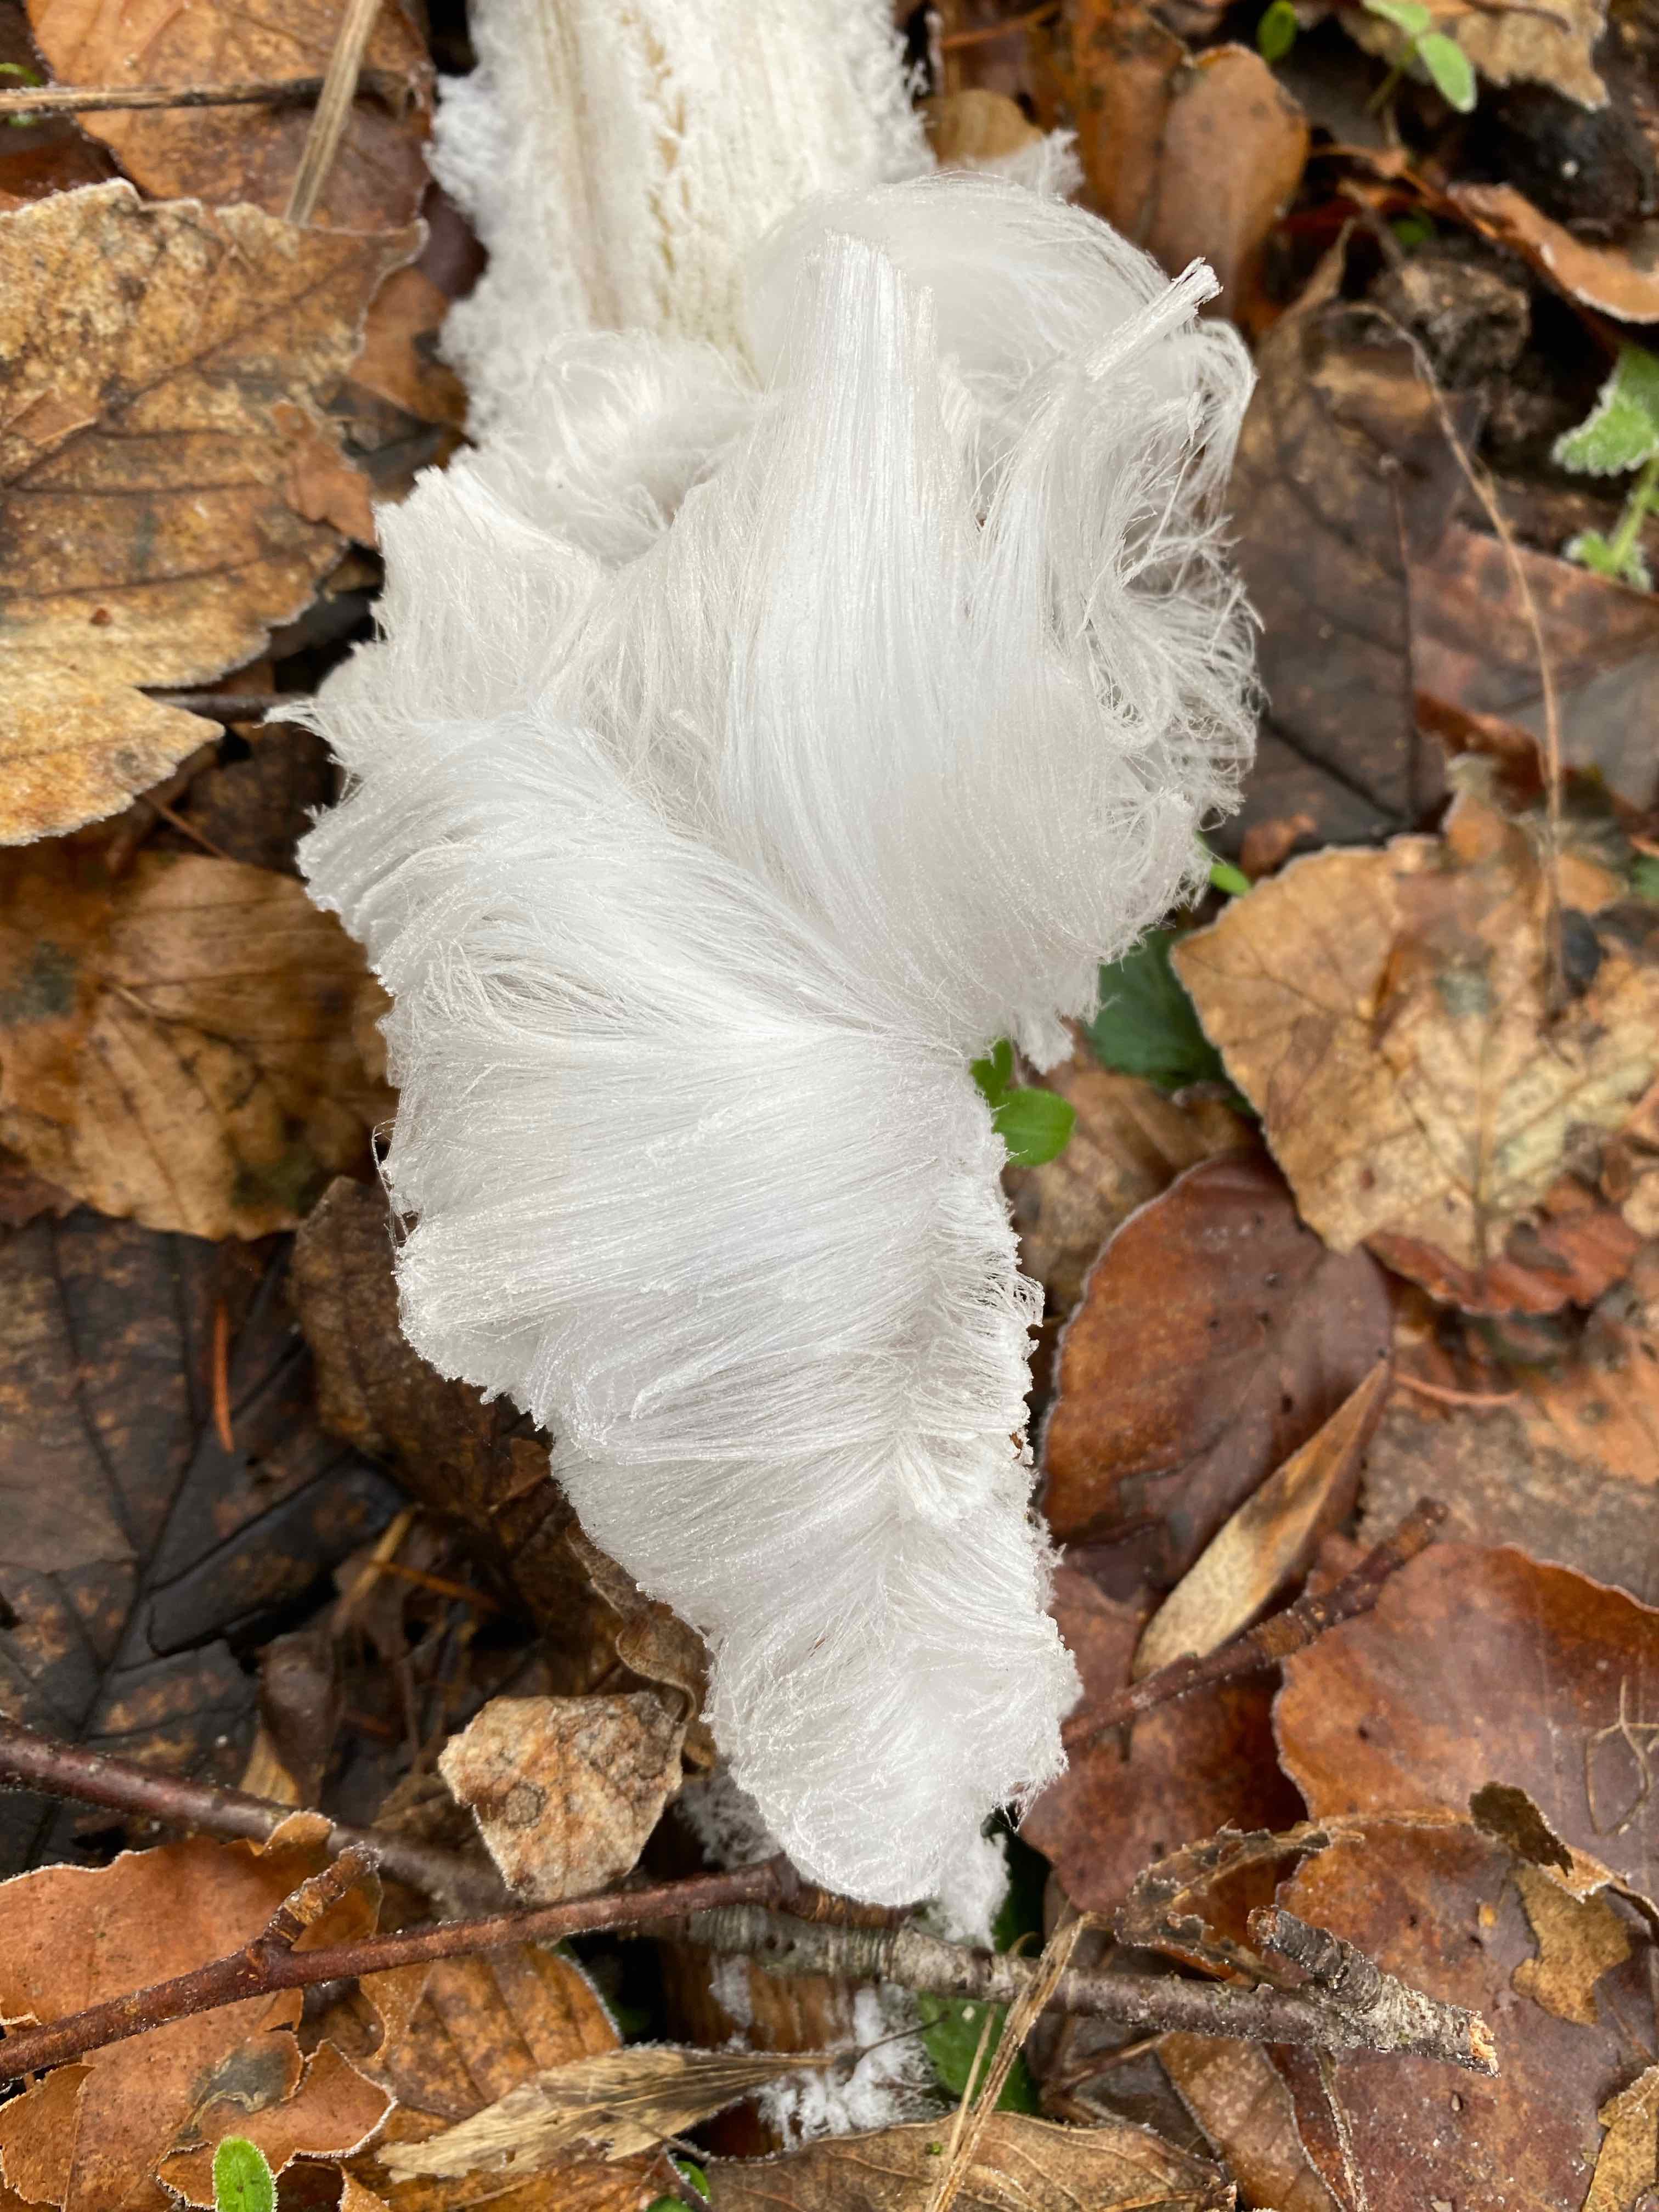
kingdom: Fungi
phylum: Basidiomycota
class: Tremellomycetes
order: Tremellales
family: Exidiaceae
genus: Exidiopsis
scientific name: Exidiopsis effusa
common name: smuk bævrehinde
